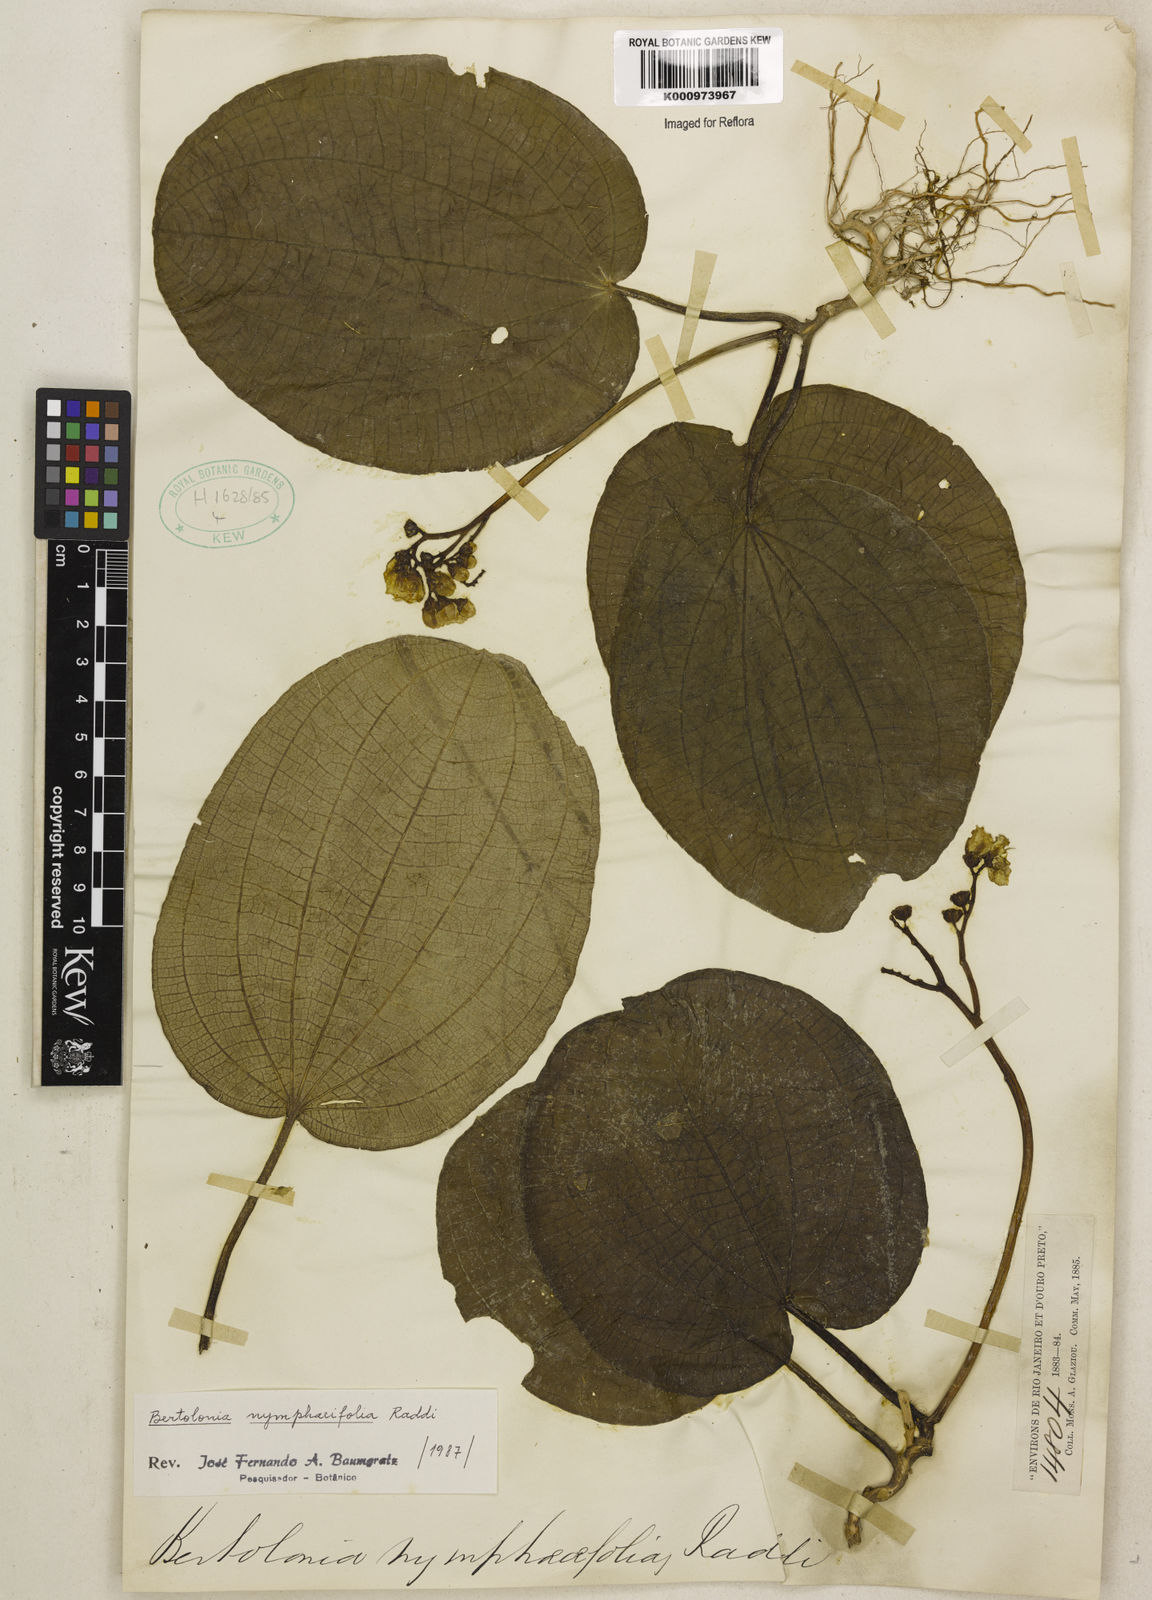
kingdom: Plantae
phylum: Tracheophyta
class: Magnoliopsida
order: Myrtales
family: Melastomataceae
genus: Bertolonia
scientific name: Bertolonia nymphaeifolia
